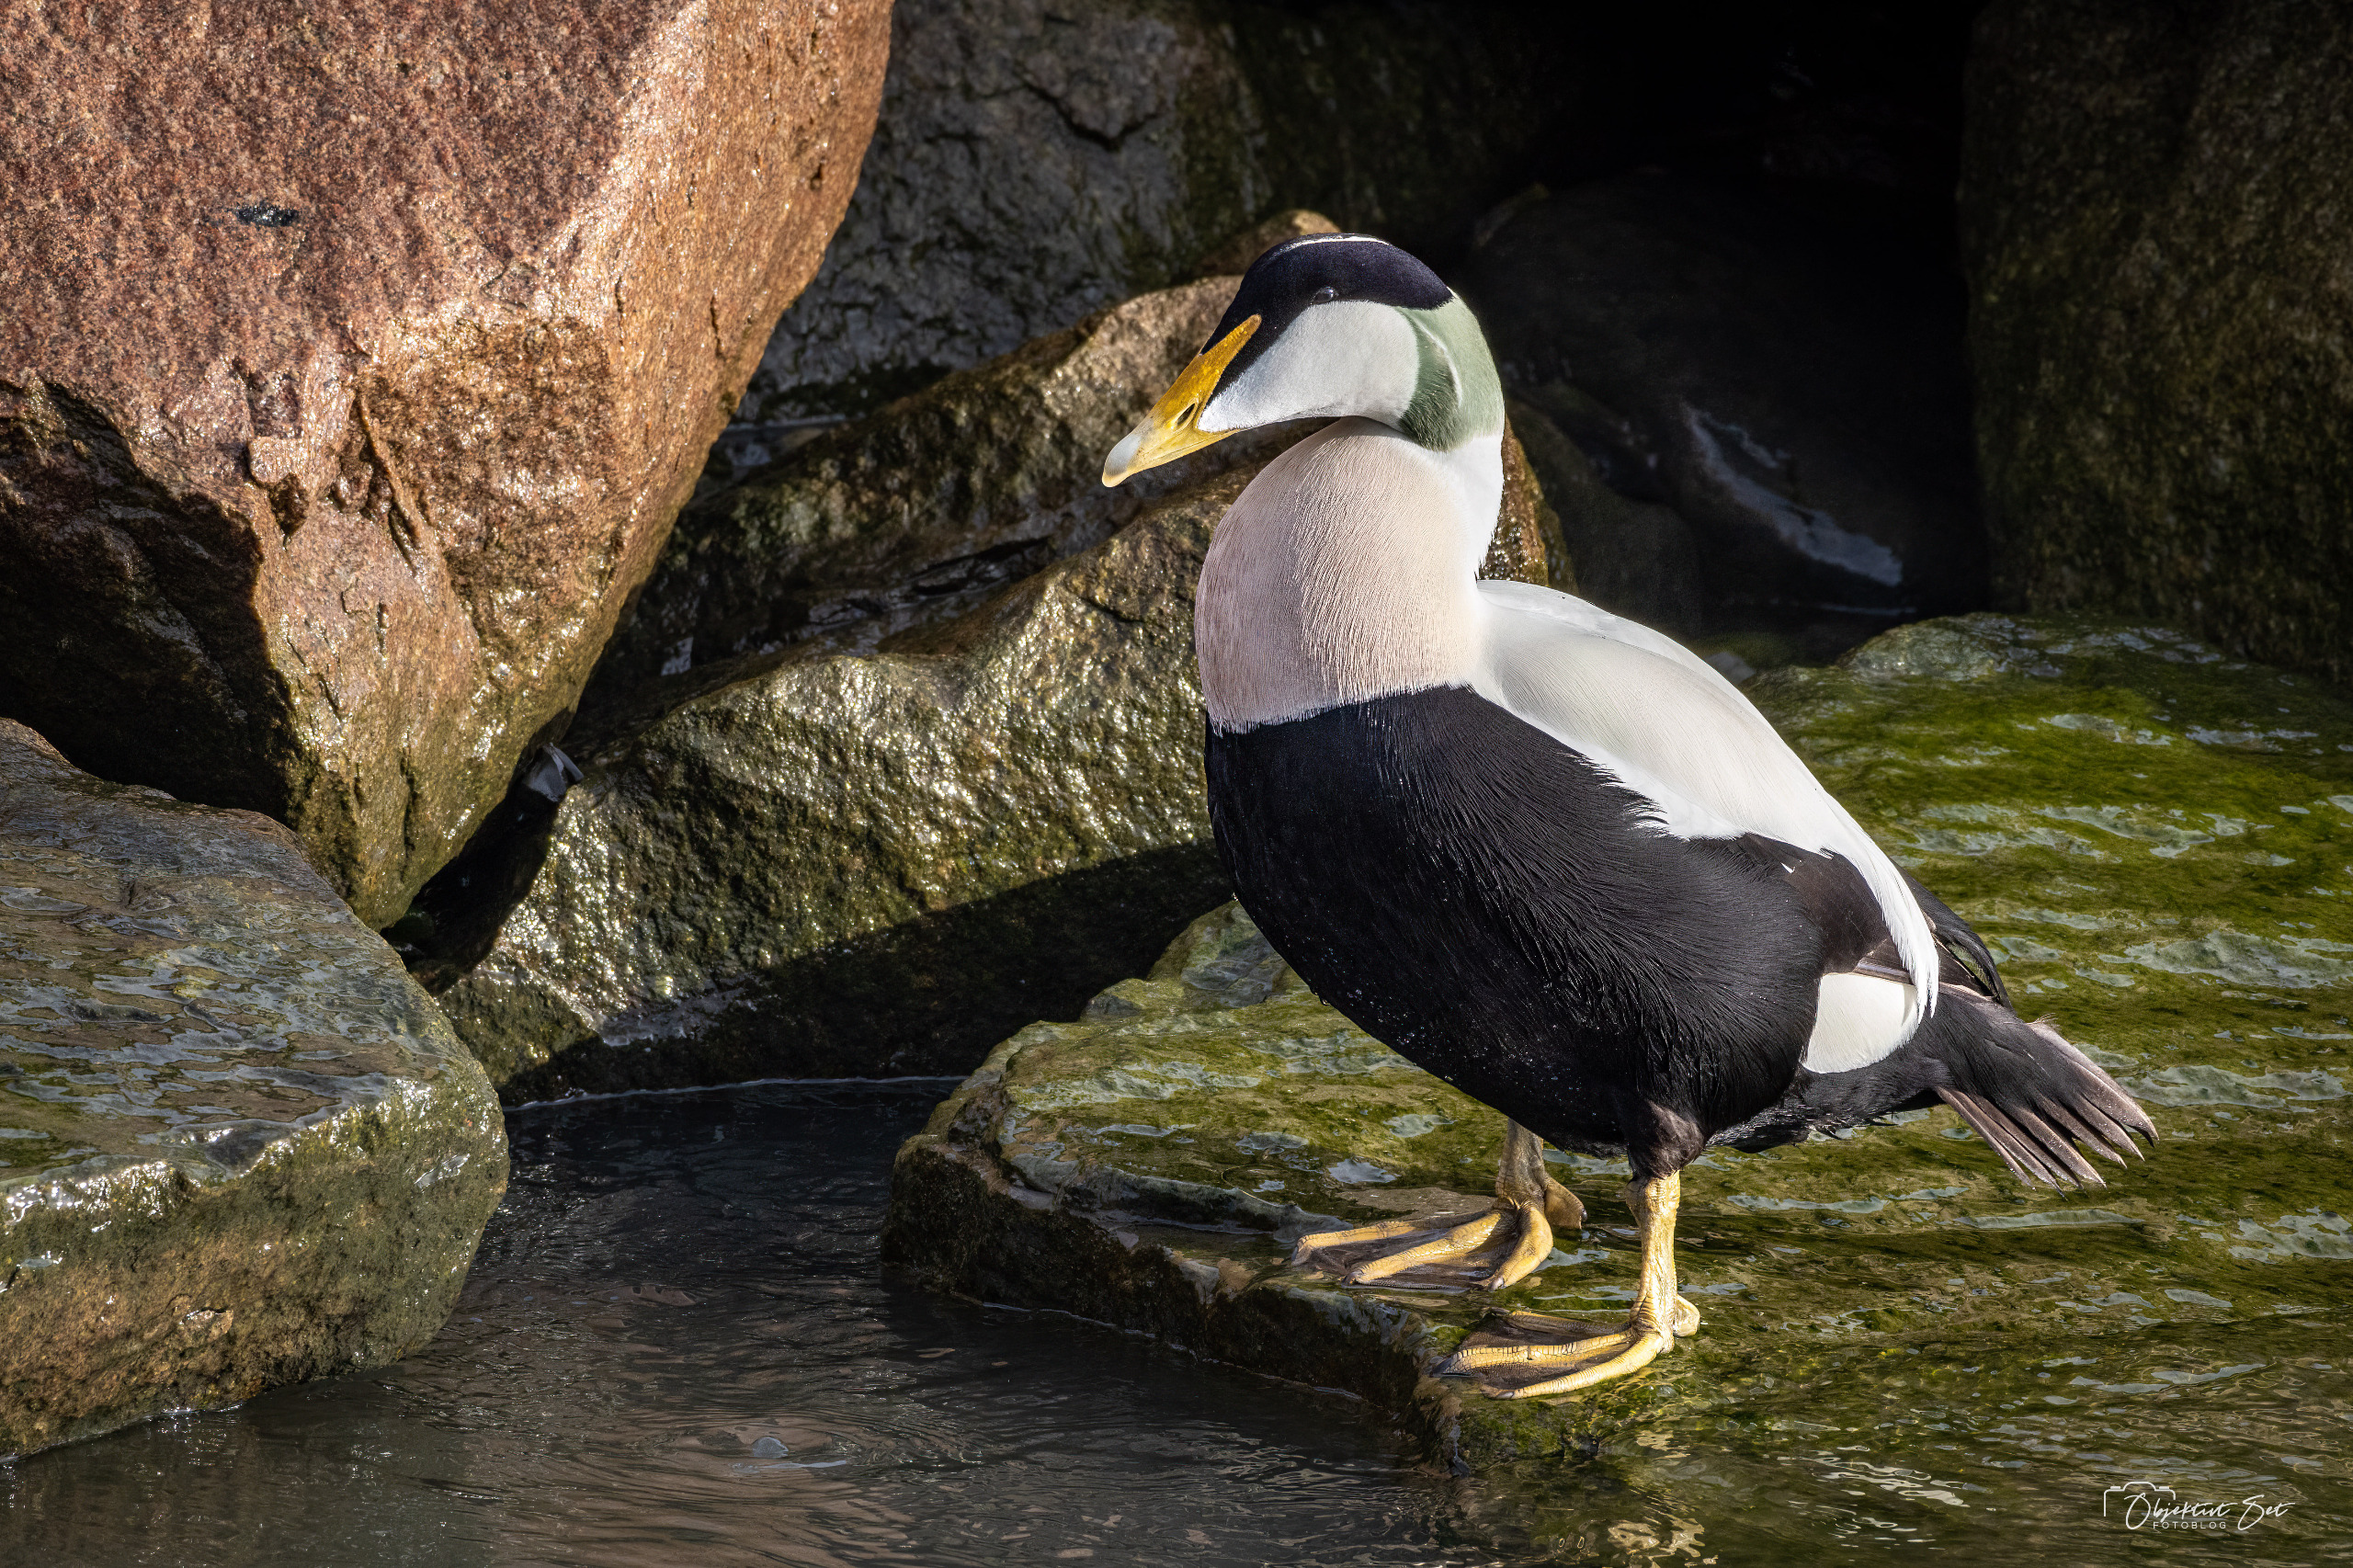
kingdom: Animalia
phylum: Chordata
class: Aves
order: Anseriformes
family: Anatidae
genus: Somateria
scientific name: Somateria mollissima
